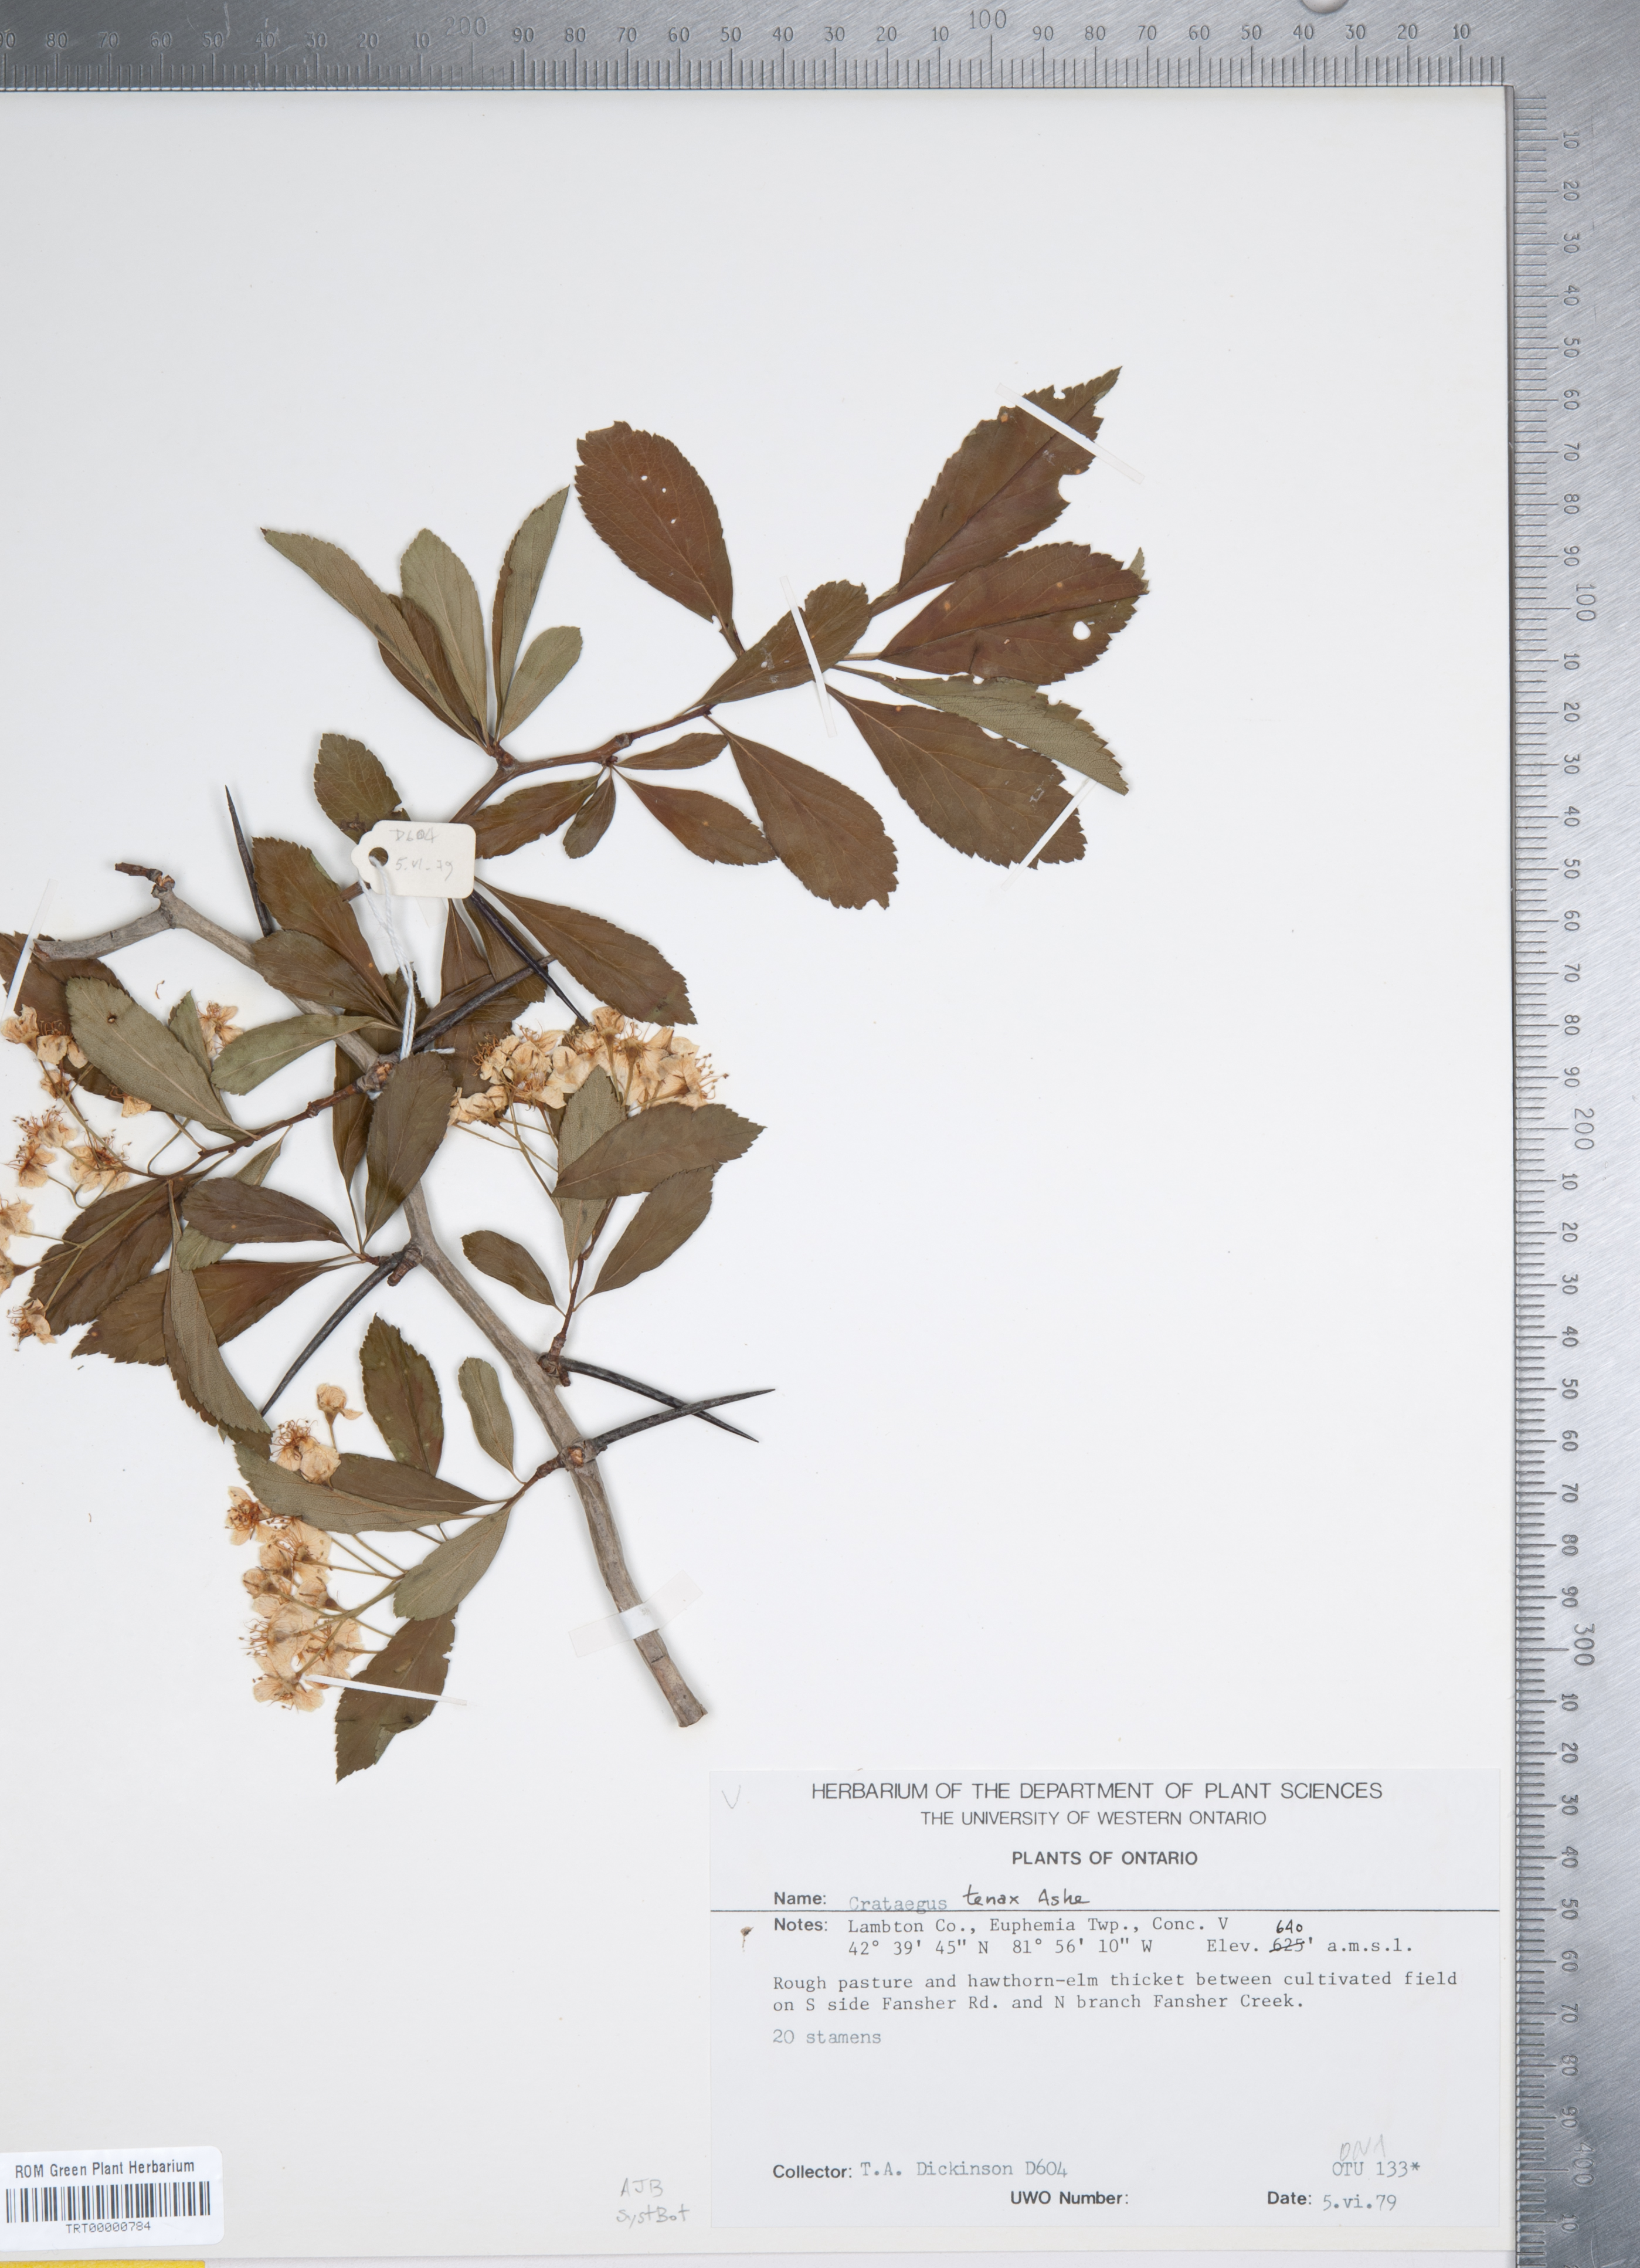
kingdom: Plantae
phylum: Tracheophyta
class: Magnoliopsida
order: Rosales
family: Rosaceae
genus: Crataegus
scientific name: Crataegus crus-galli
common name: Cockspurthorn
